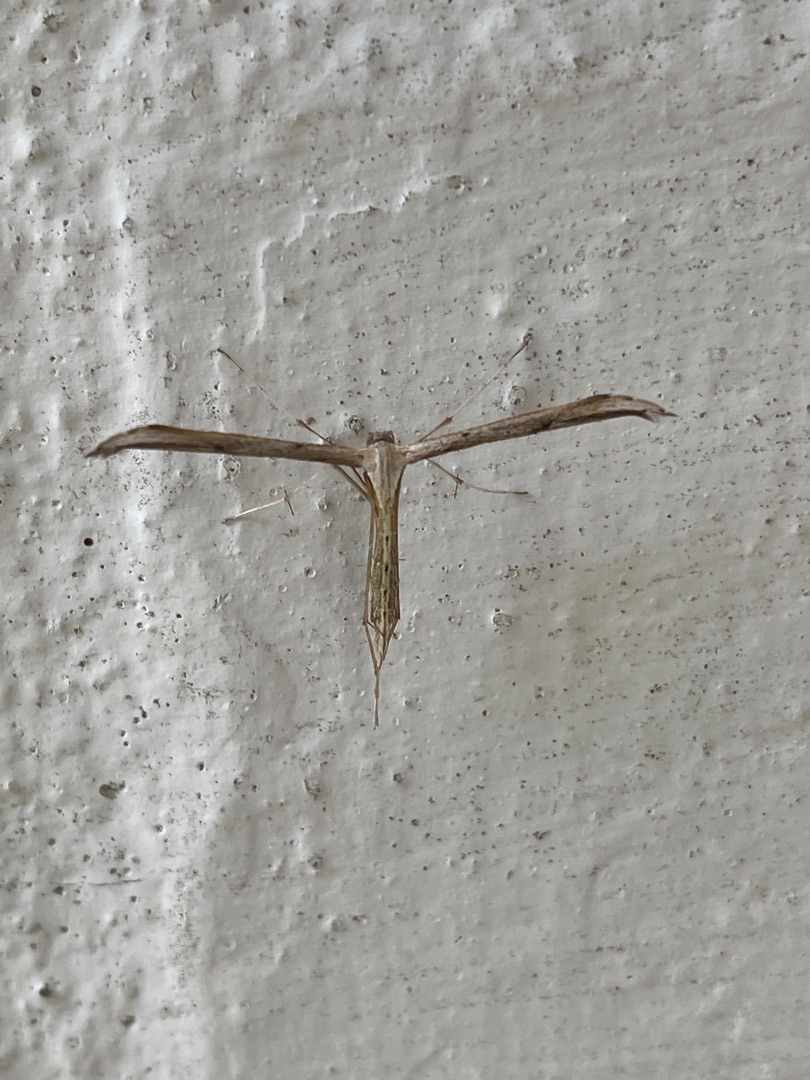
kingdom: Animalia
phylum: Arthropoda
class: Insecta
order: Lepidoptera
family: Pterophoridae
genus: Emmelina
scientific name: Emmelina monodactyla
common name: Snerlefjermøl
